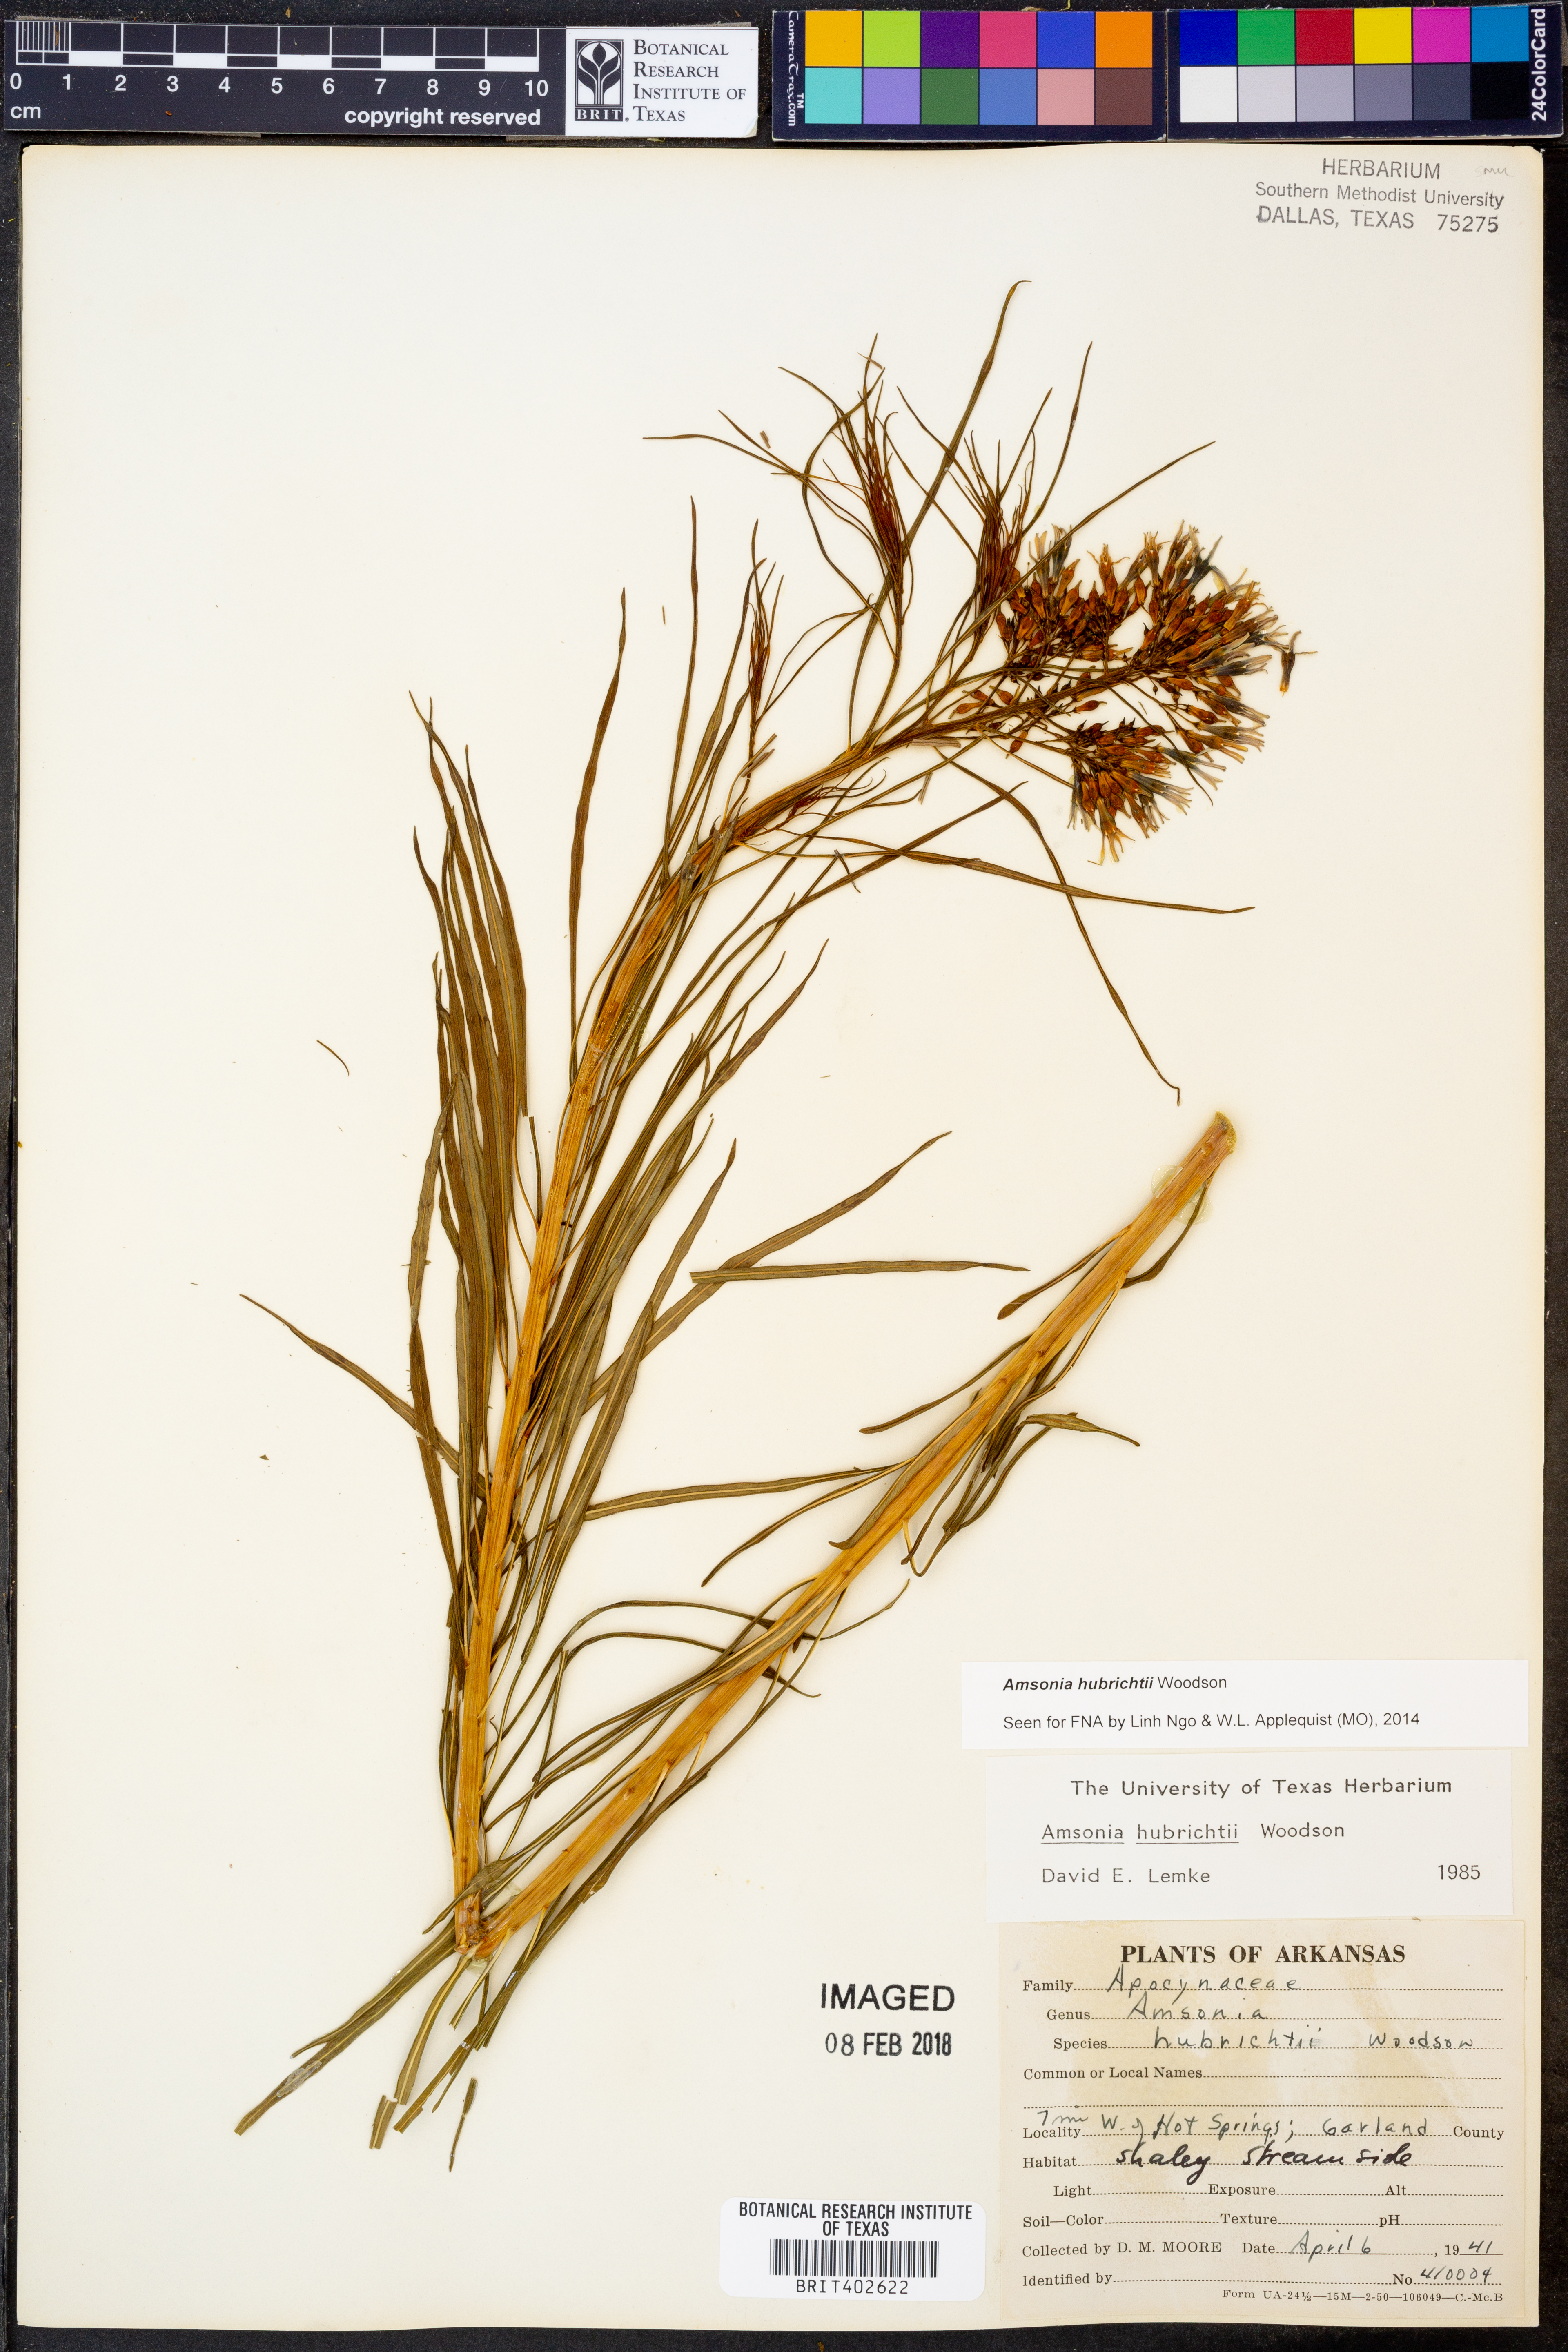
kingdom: Plantae
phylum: Tracheophyta
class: Magnoliopsida
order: Gentianales
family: Apocynaceae
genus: Amsonia
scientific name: Amsonia hubrichtii
